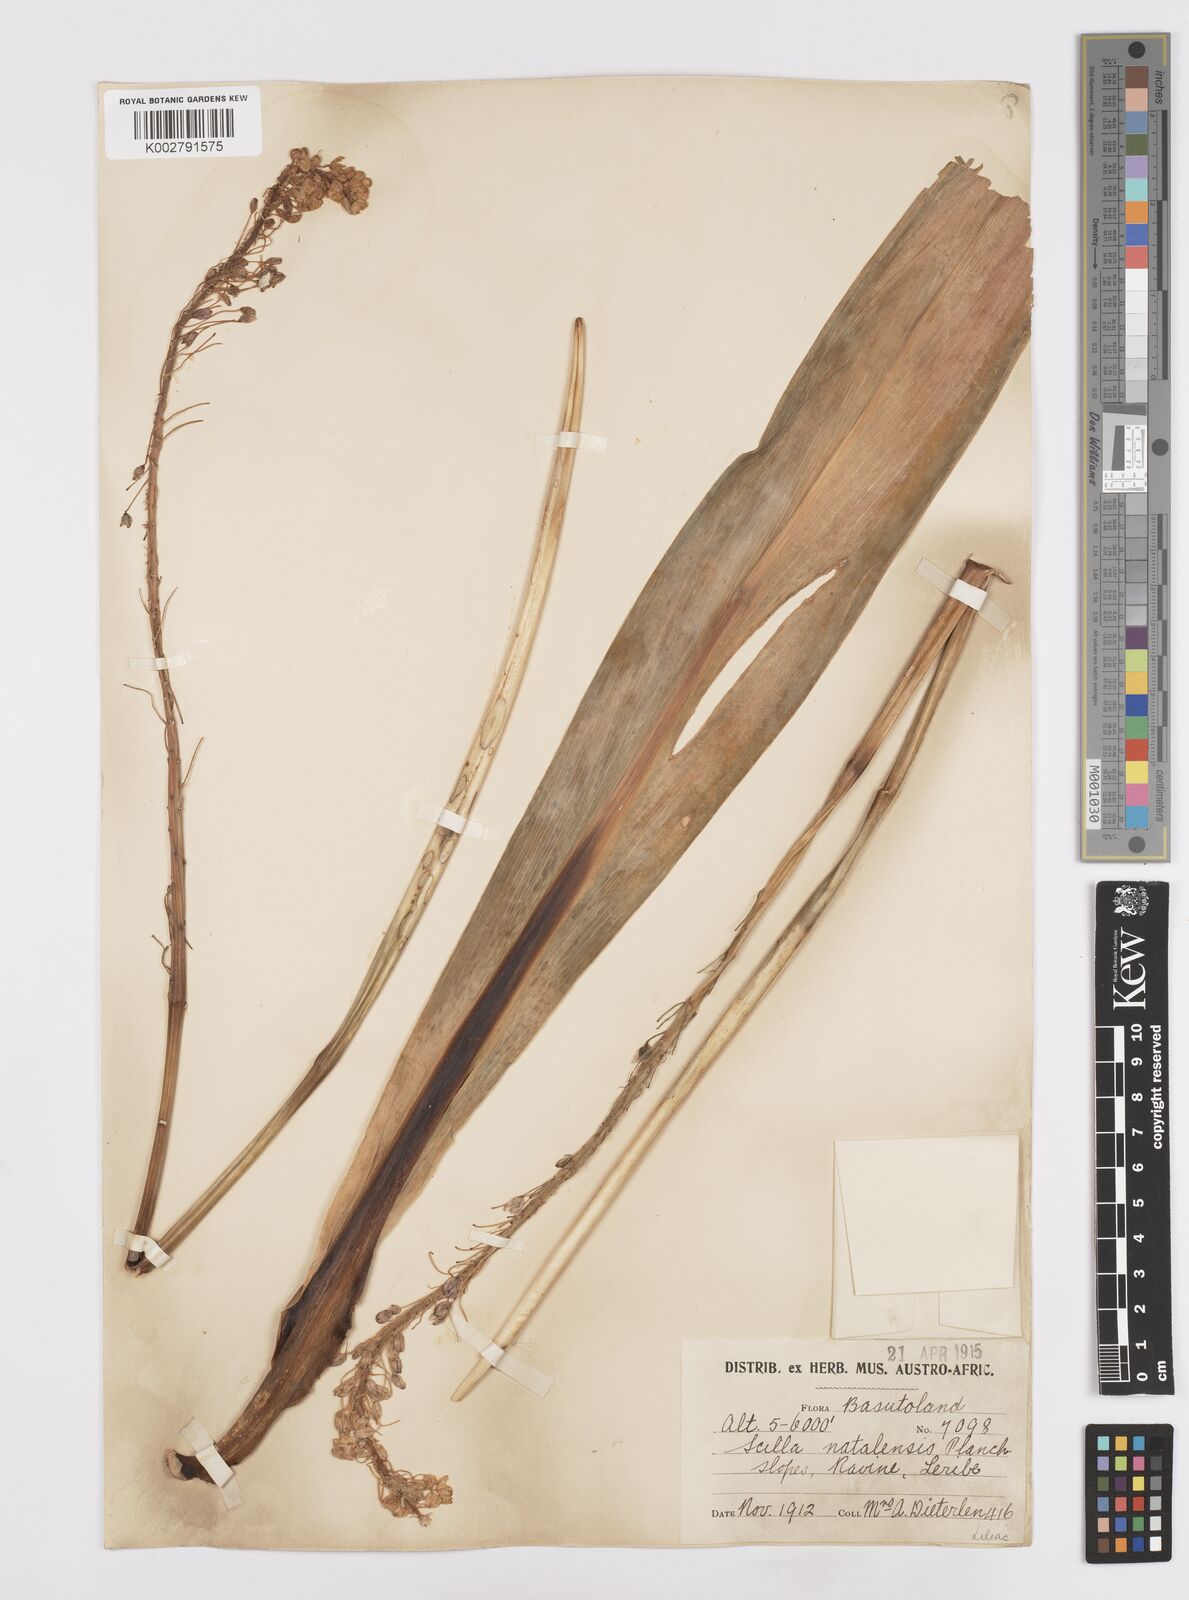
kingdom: Plantae
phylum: Tracheophyta
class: Liliopsida
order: Asparagales
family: Asparagaceae
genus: Merwilla
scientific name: Merwilla plumbea
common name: Blue-squill
